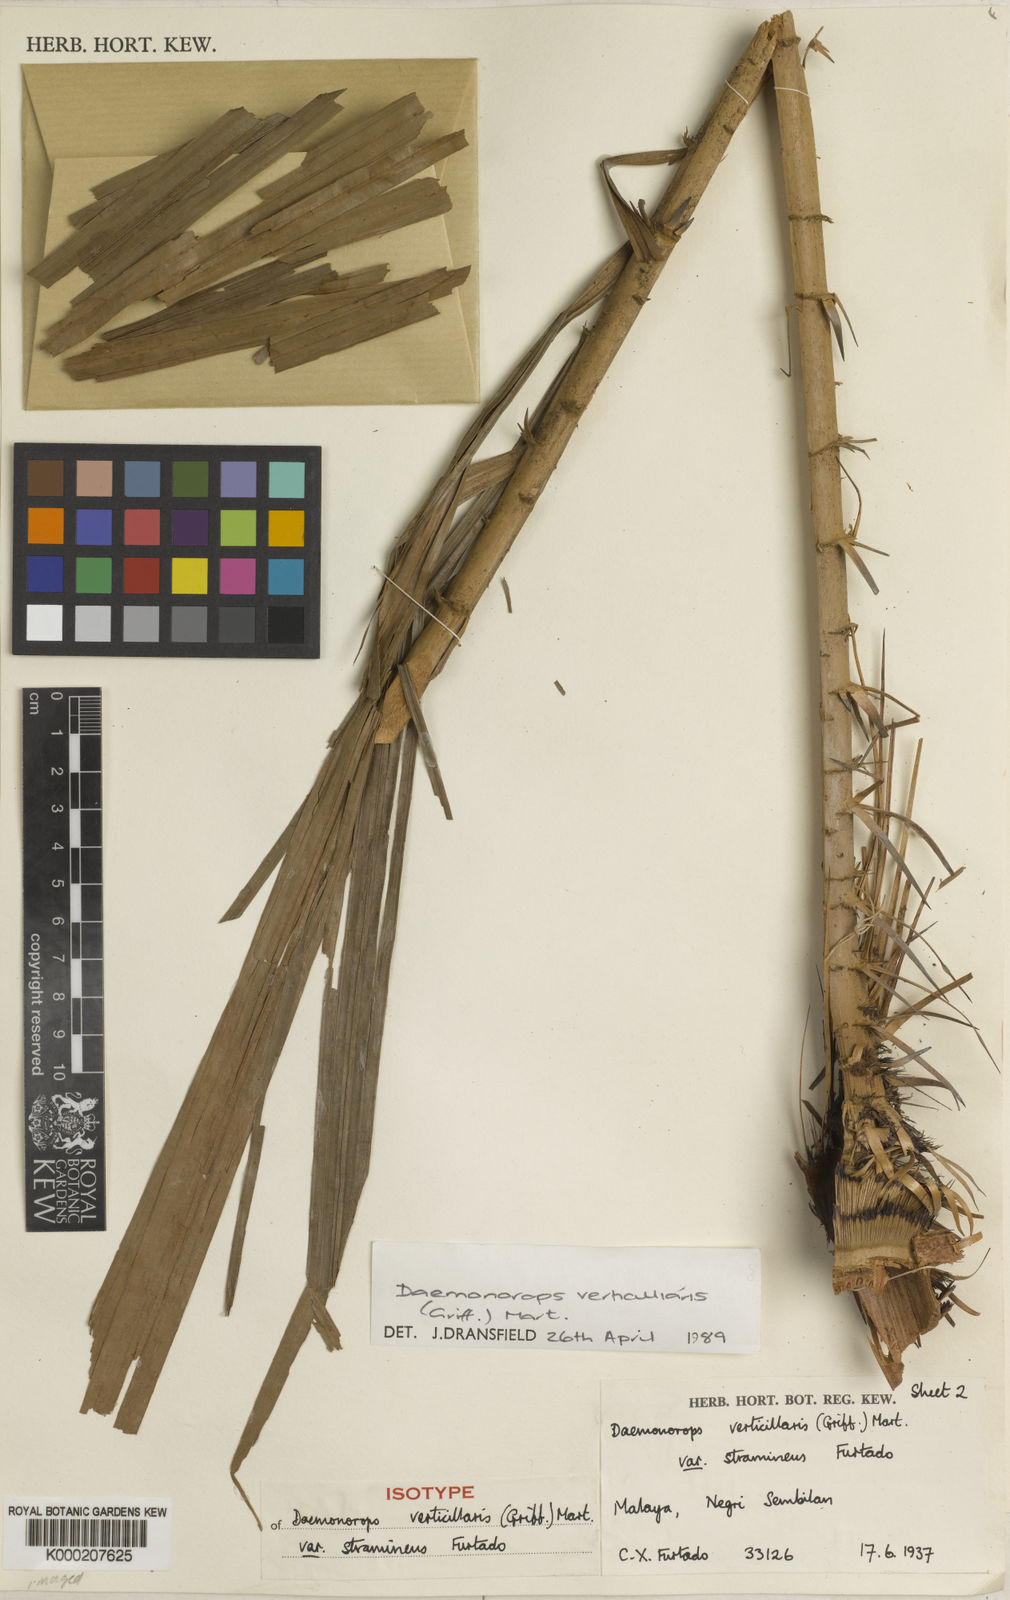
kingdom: Plantae
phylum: Tracheophyta
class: Liliopsida
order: Arecales
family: Arecaceae
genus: Calamus
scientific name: Calamus verticillaris
